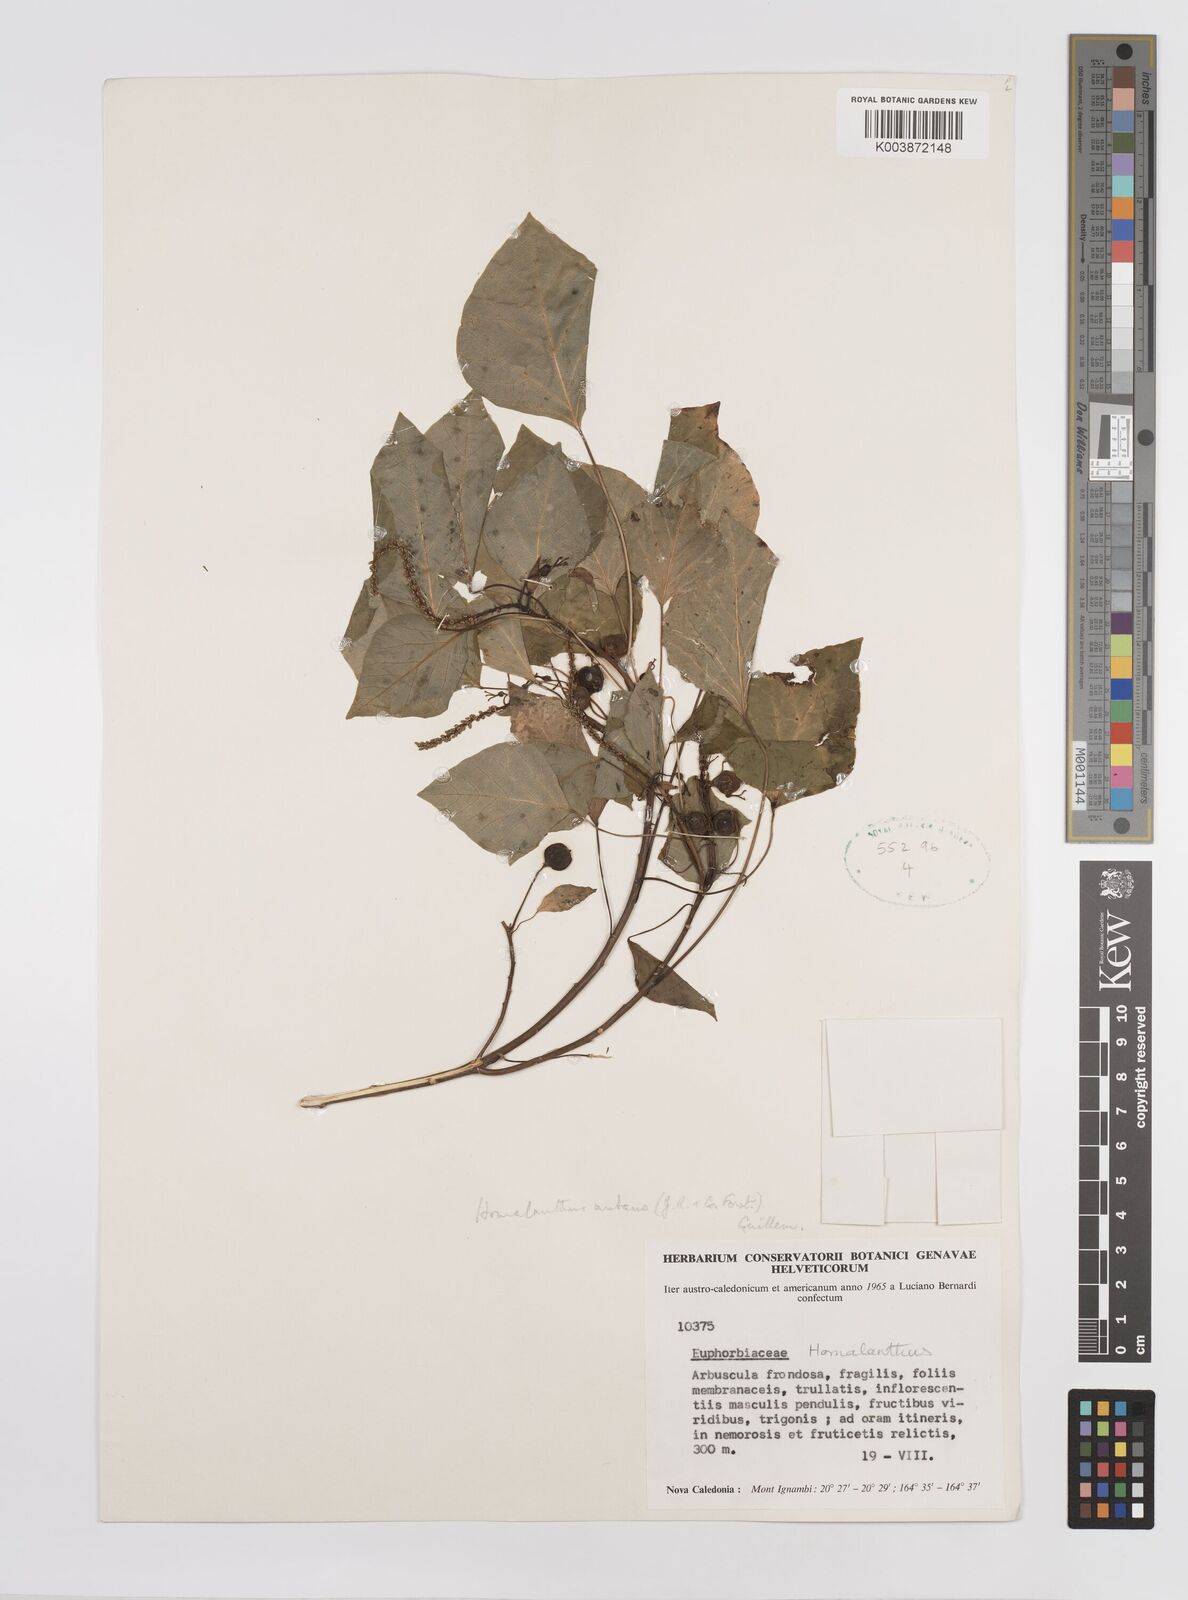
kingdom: Plantae
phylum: Tracheophyta
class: Magnoliopsida
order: Malpighiales
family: Euphorbiaceae
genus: Homalanthus
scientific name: Homalanthus nutans
